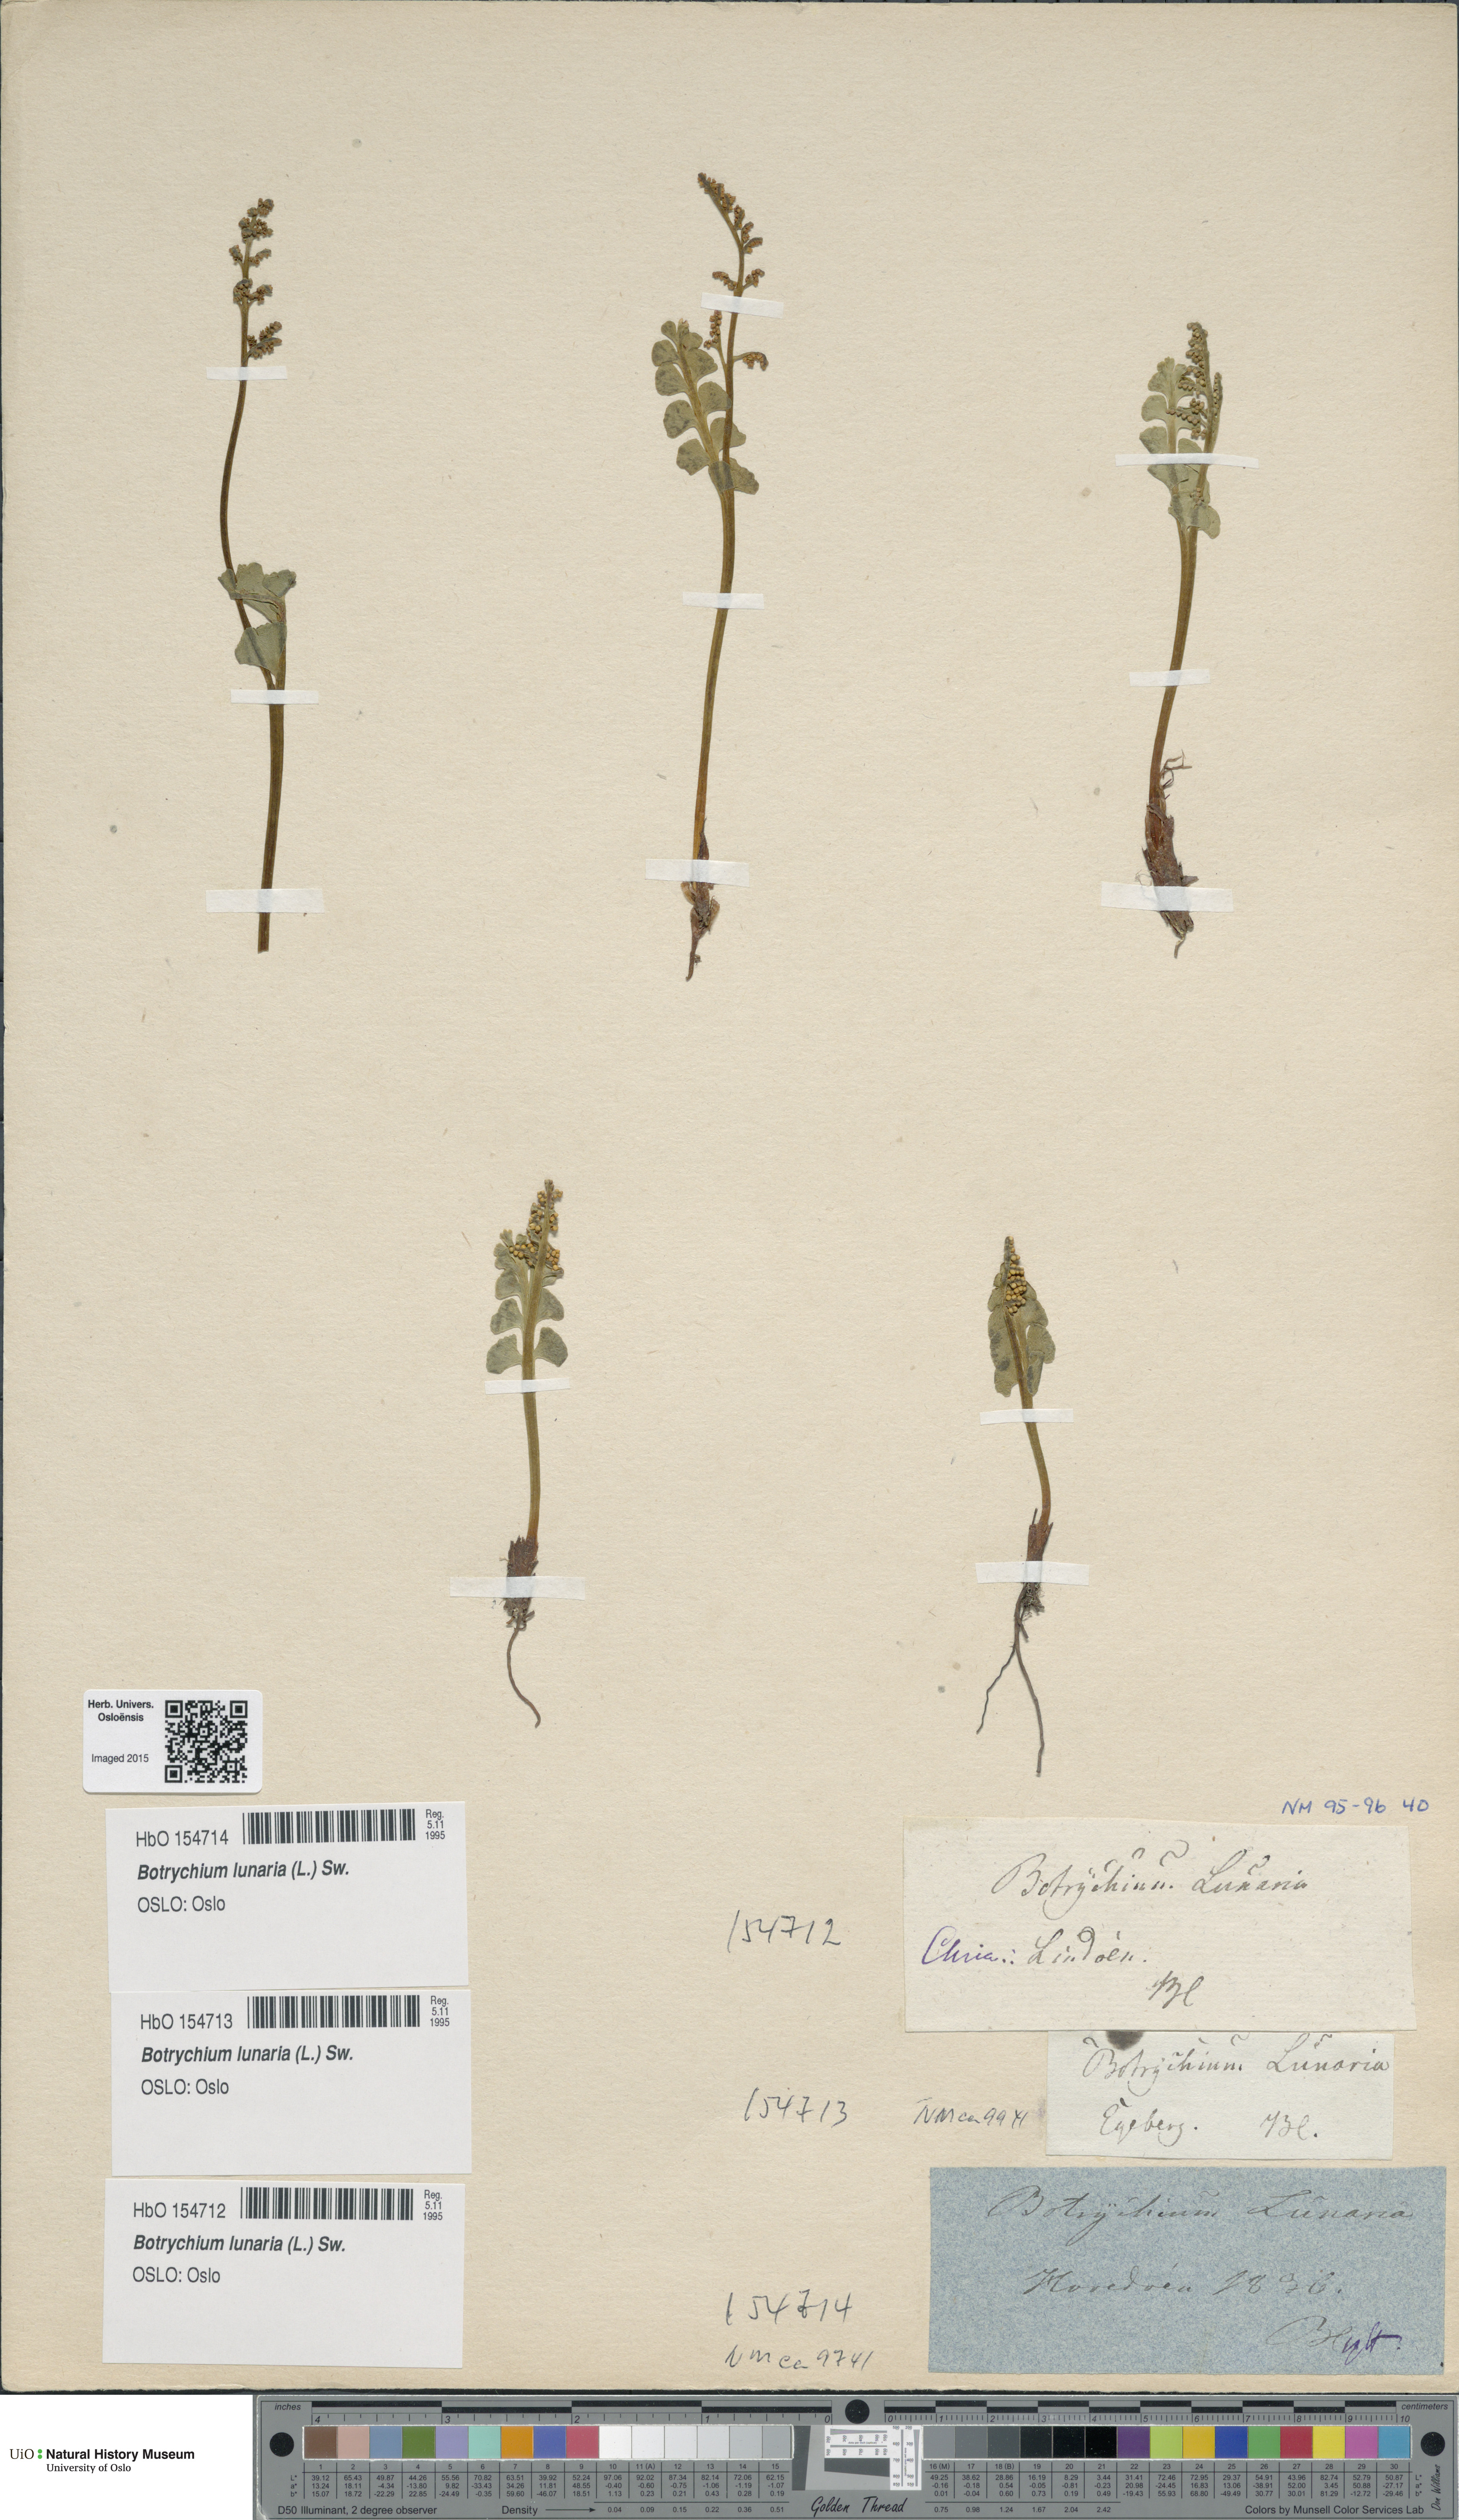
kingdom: Plantae
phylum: Tracheophyta
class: Polypodiopsida
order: Ophioglossales
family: Ophioglossaceae
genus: Botrychium
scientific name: Botrychium lunaria
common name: Moonwort
